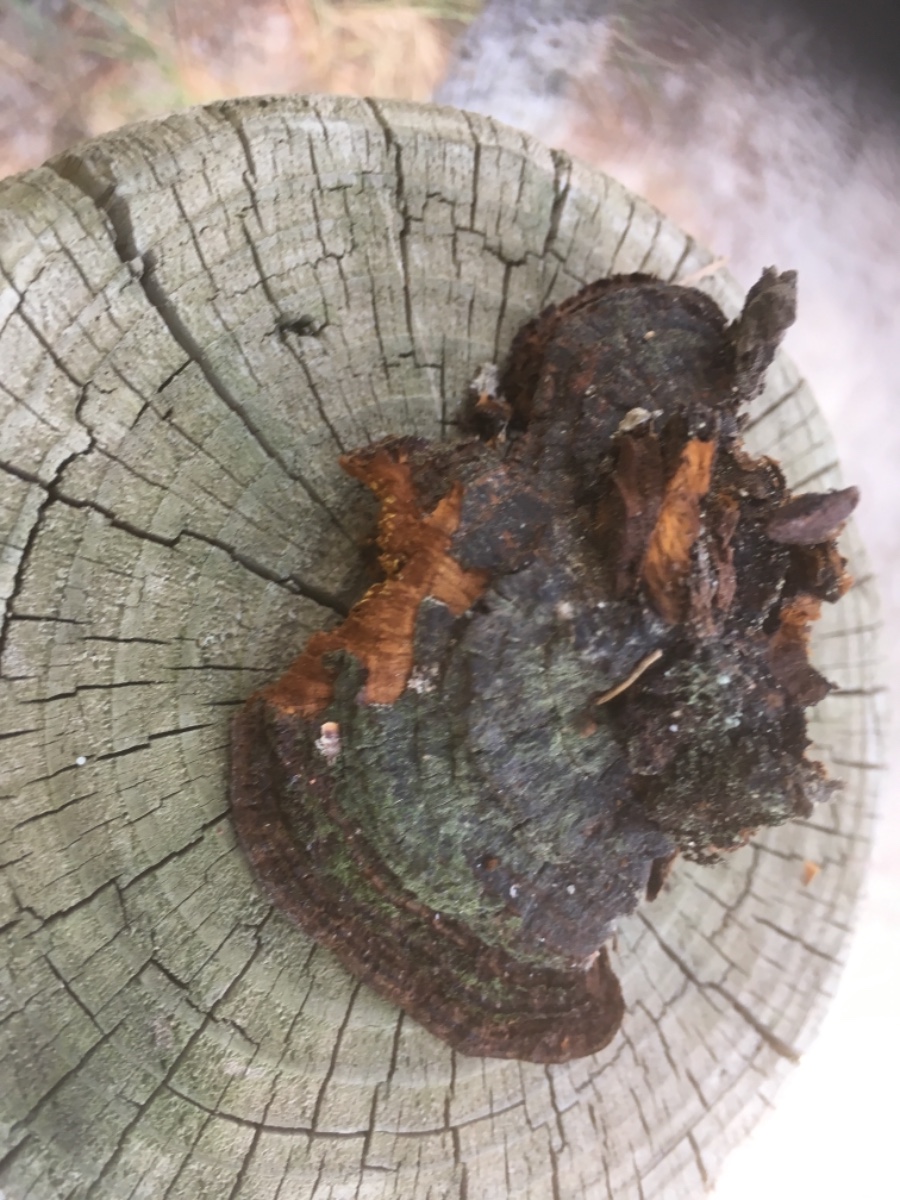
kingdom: Fungi
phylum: Basidiomycota
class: Agaricomycetes
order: Gloeophyllales
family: Gloeophyllaceae
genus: Gloeophyllum
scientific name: Gloeophyllum trabeum
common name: tømmer-korkhat
